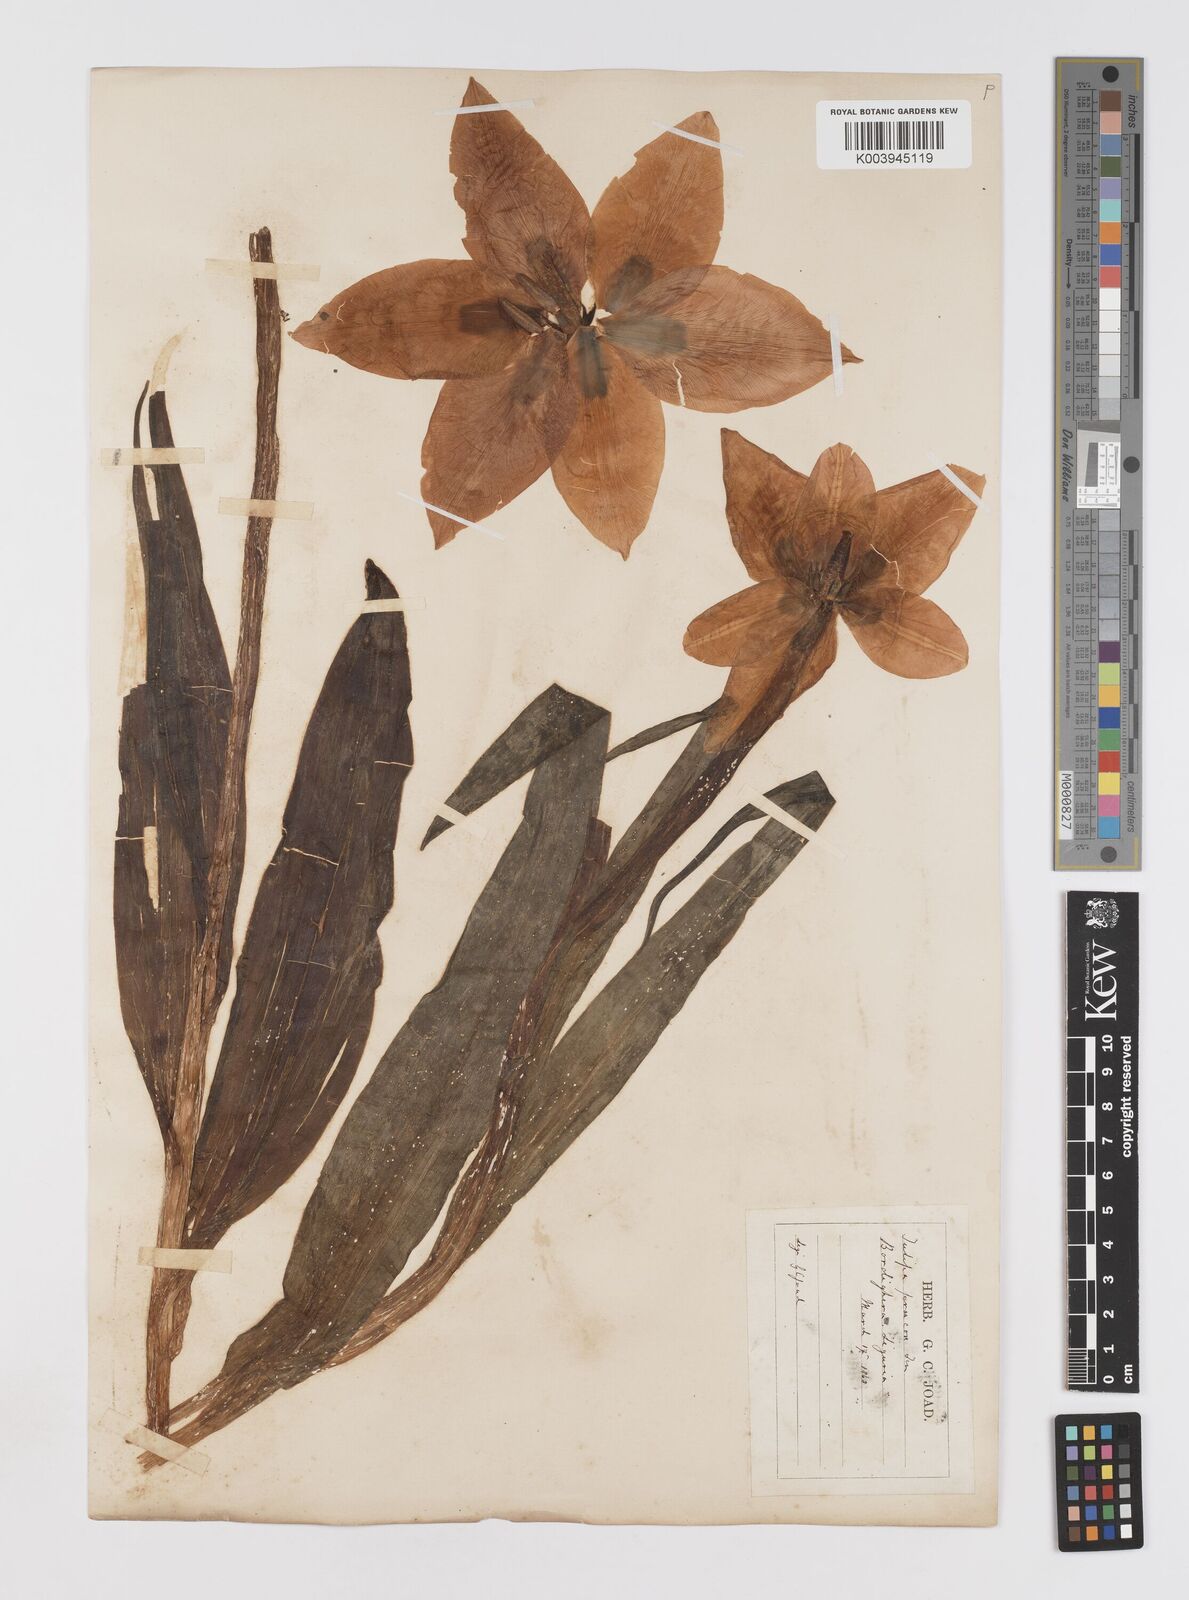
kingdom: Plantae
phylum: Tracheophyta
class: Liliopsida
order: Liliales
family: Liliaceae
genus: Tulipa
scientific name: Tulipa
